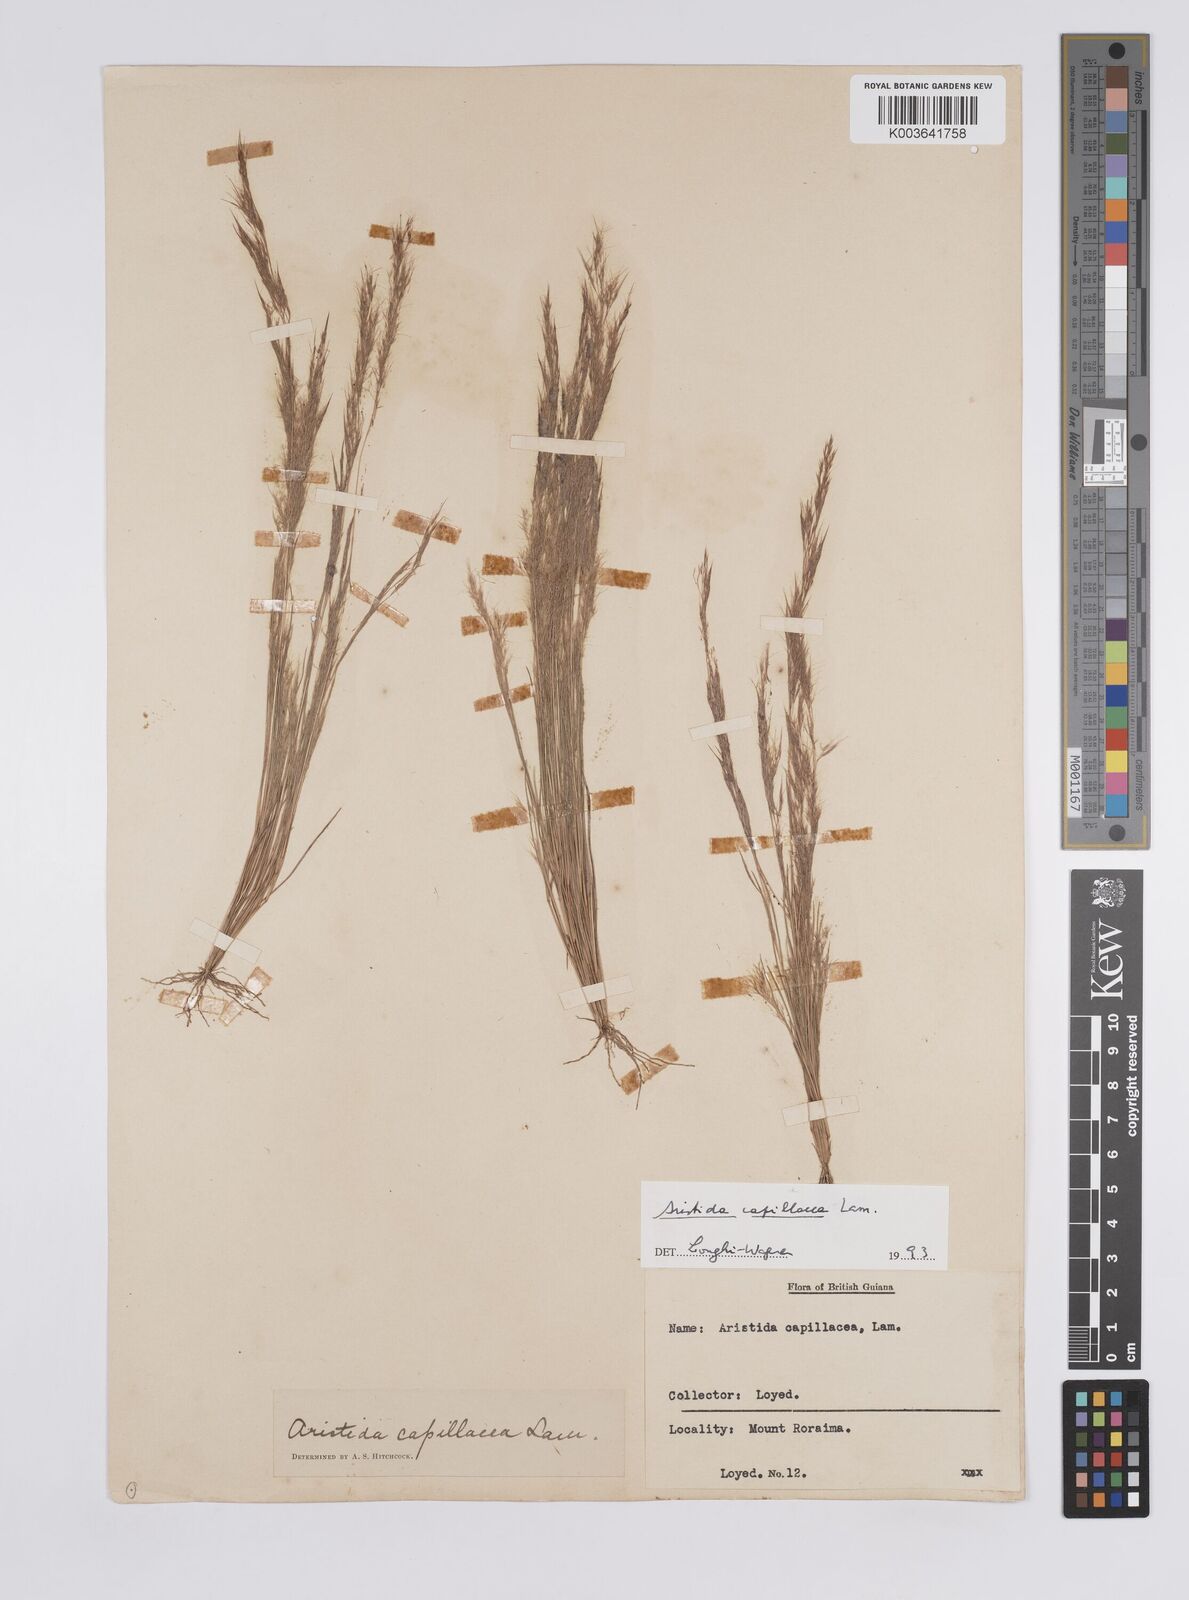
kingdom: Plantae
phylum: Tracheophyta
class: Liliopsida
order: Poales
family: Poaceae
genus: Aristida
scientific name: Aristida capillacea
